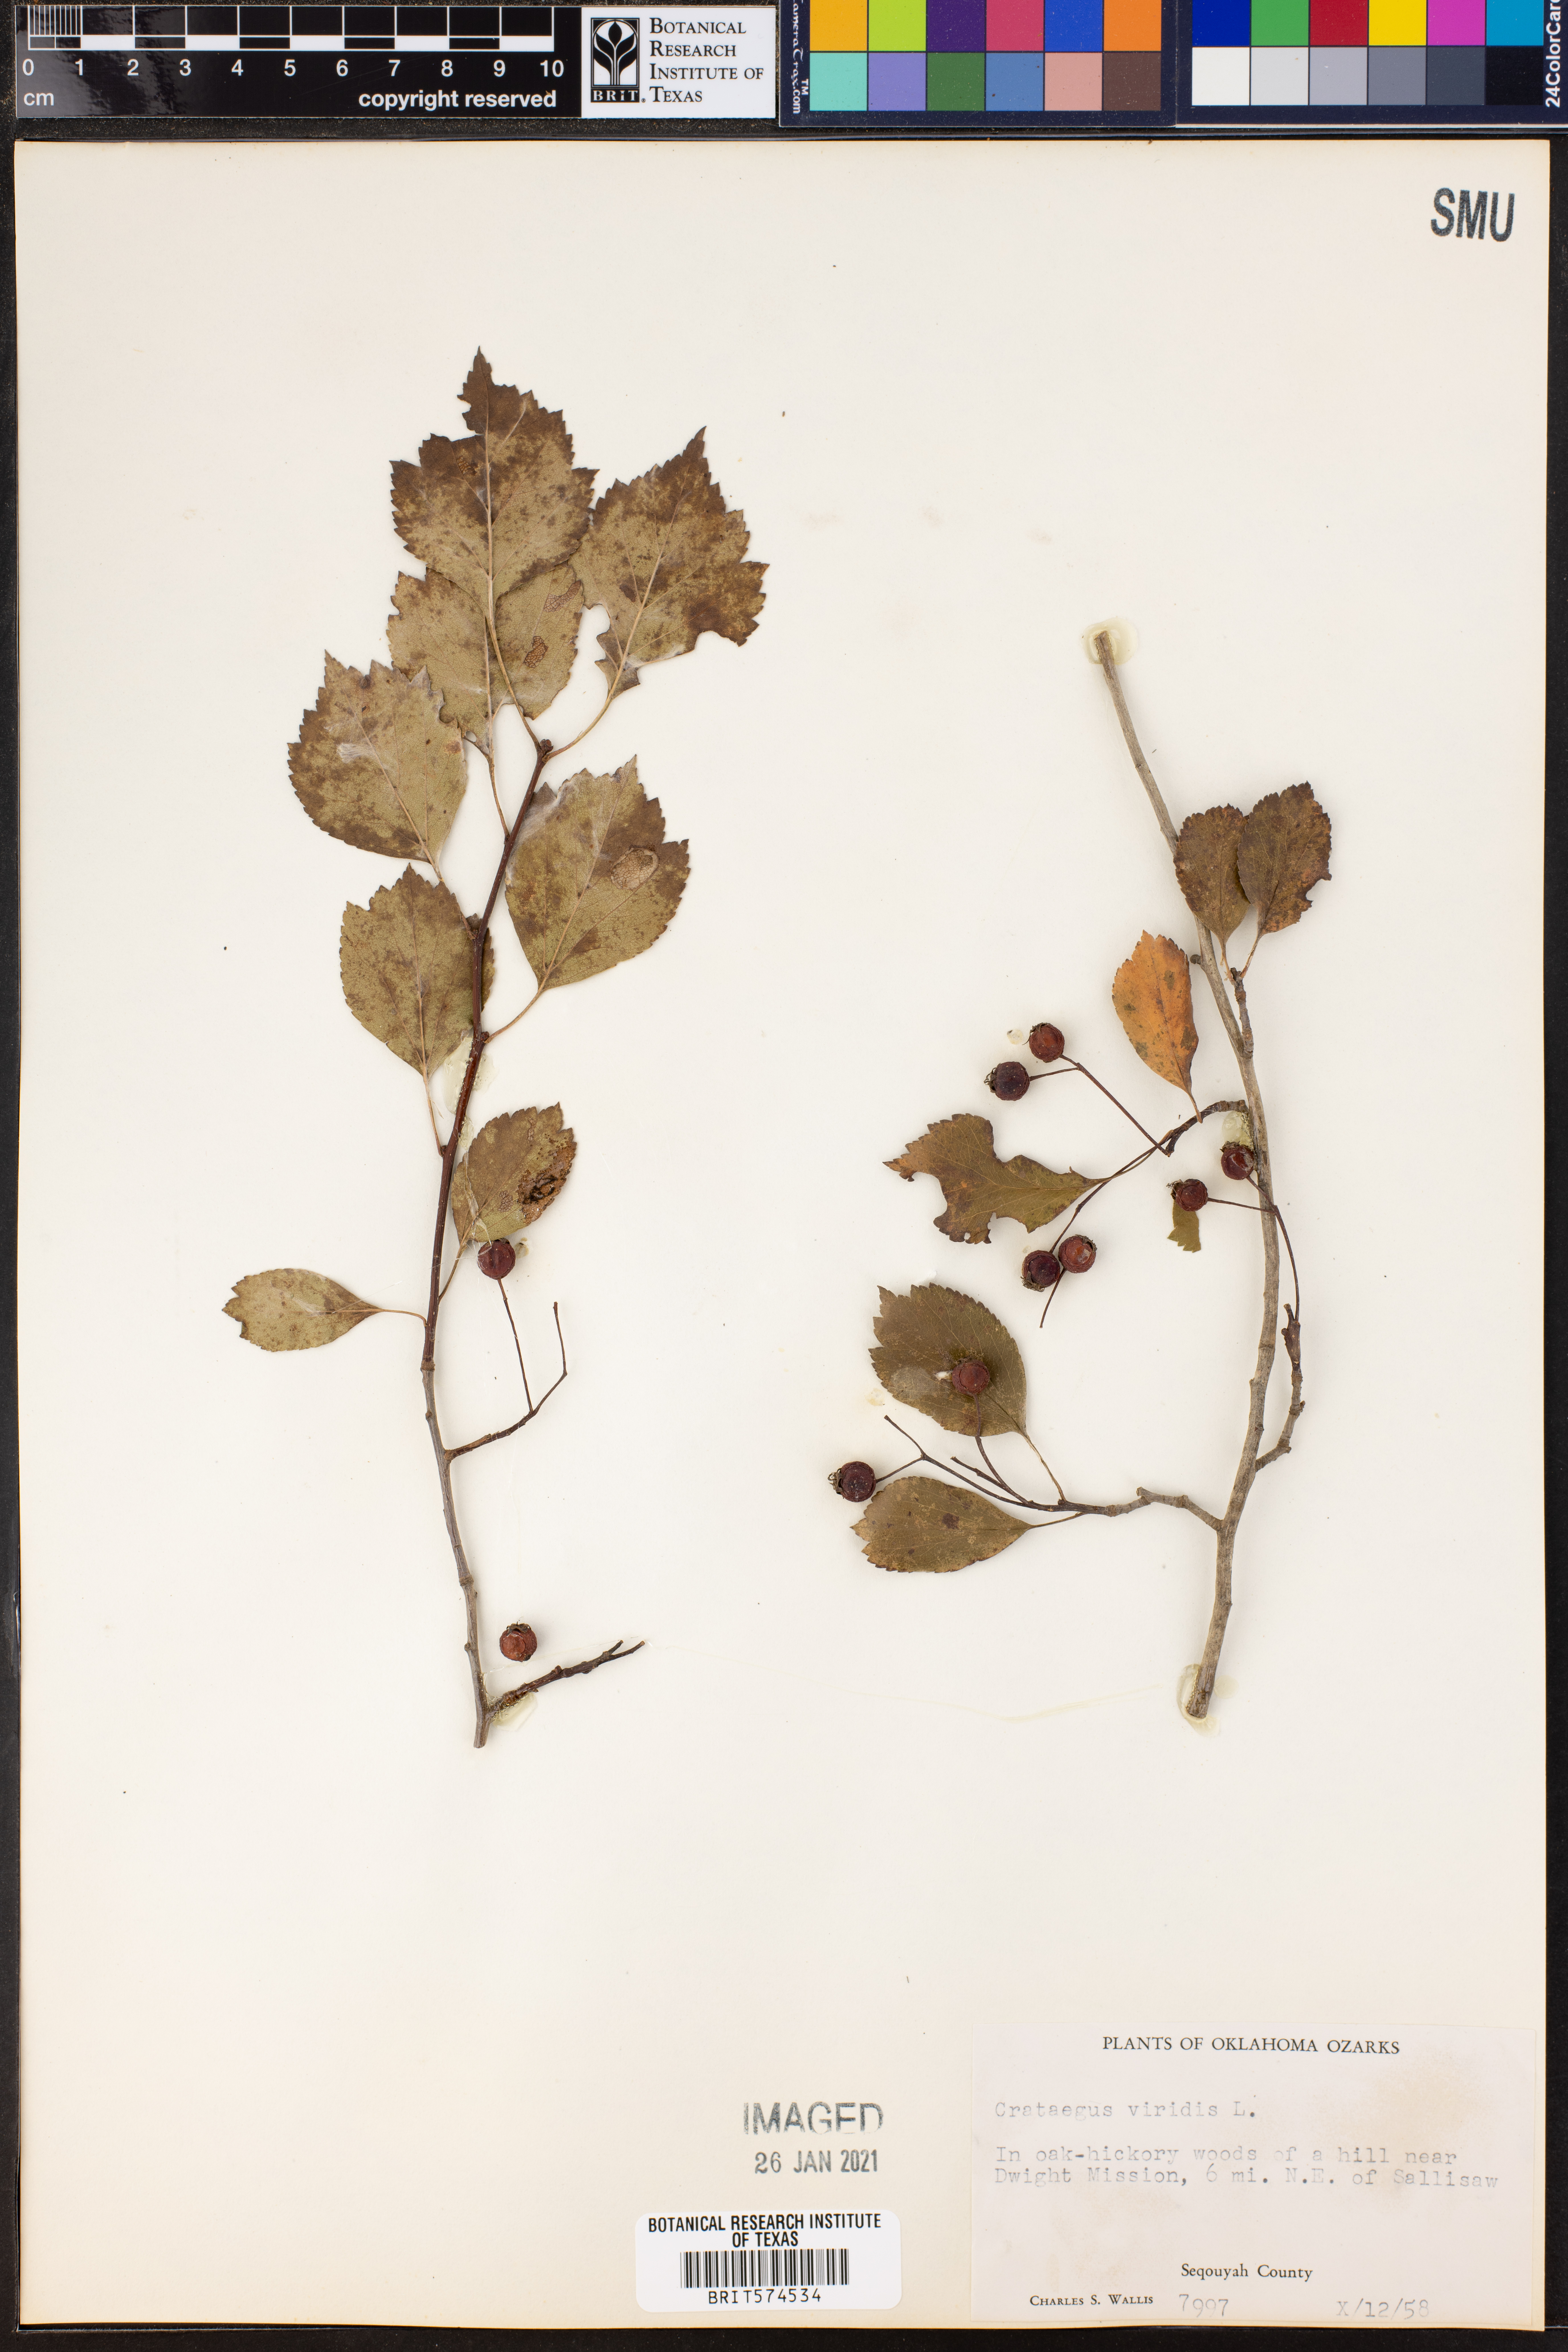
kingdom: Plantae
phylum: Tracheophyta
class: Magnoliopsida
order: Rosales
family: Rosaceae
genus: Crataegus
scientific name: Crataegus viridis
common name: Southernthorn
